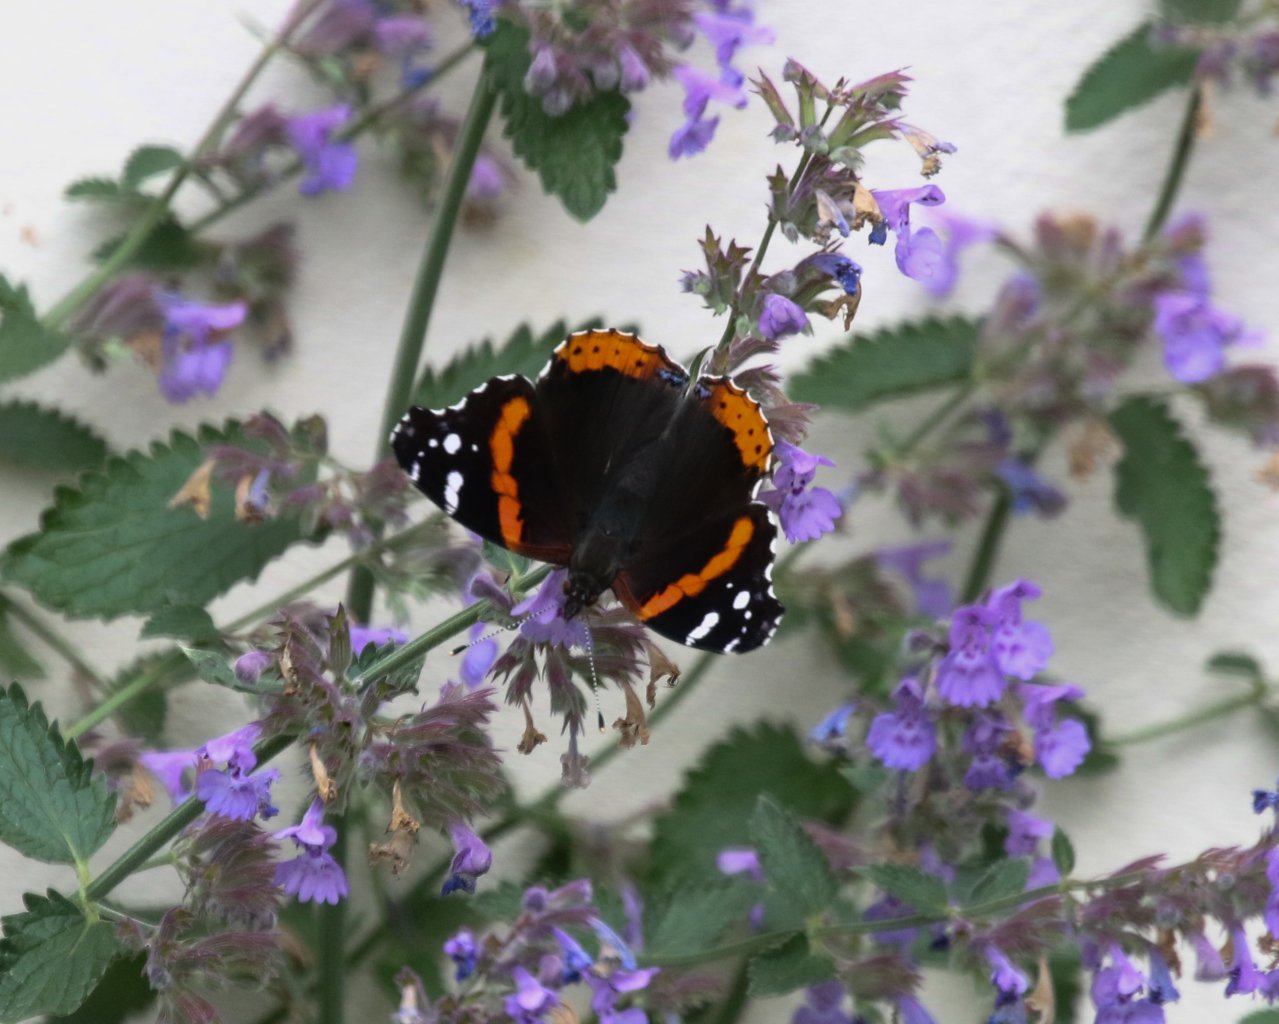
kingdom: Animalia
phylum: Arthropoda
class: Insecta
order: Lepidoptera
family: Nymphalidae
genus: Vanessa
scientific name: Vanessa atalanta
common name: Red Admiral
